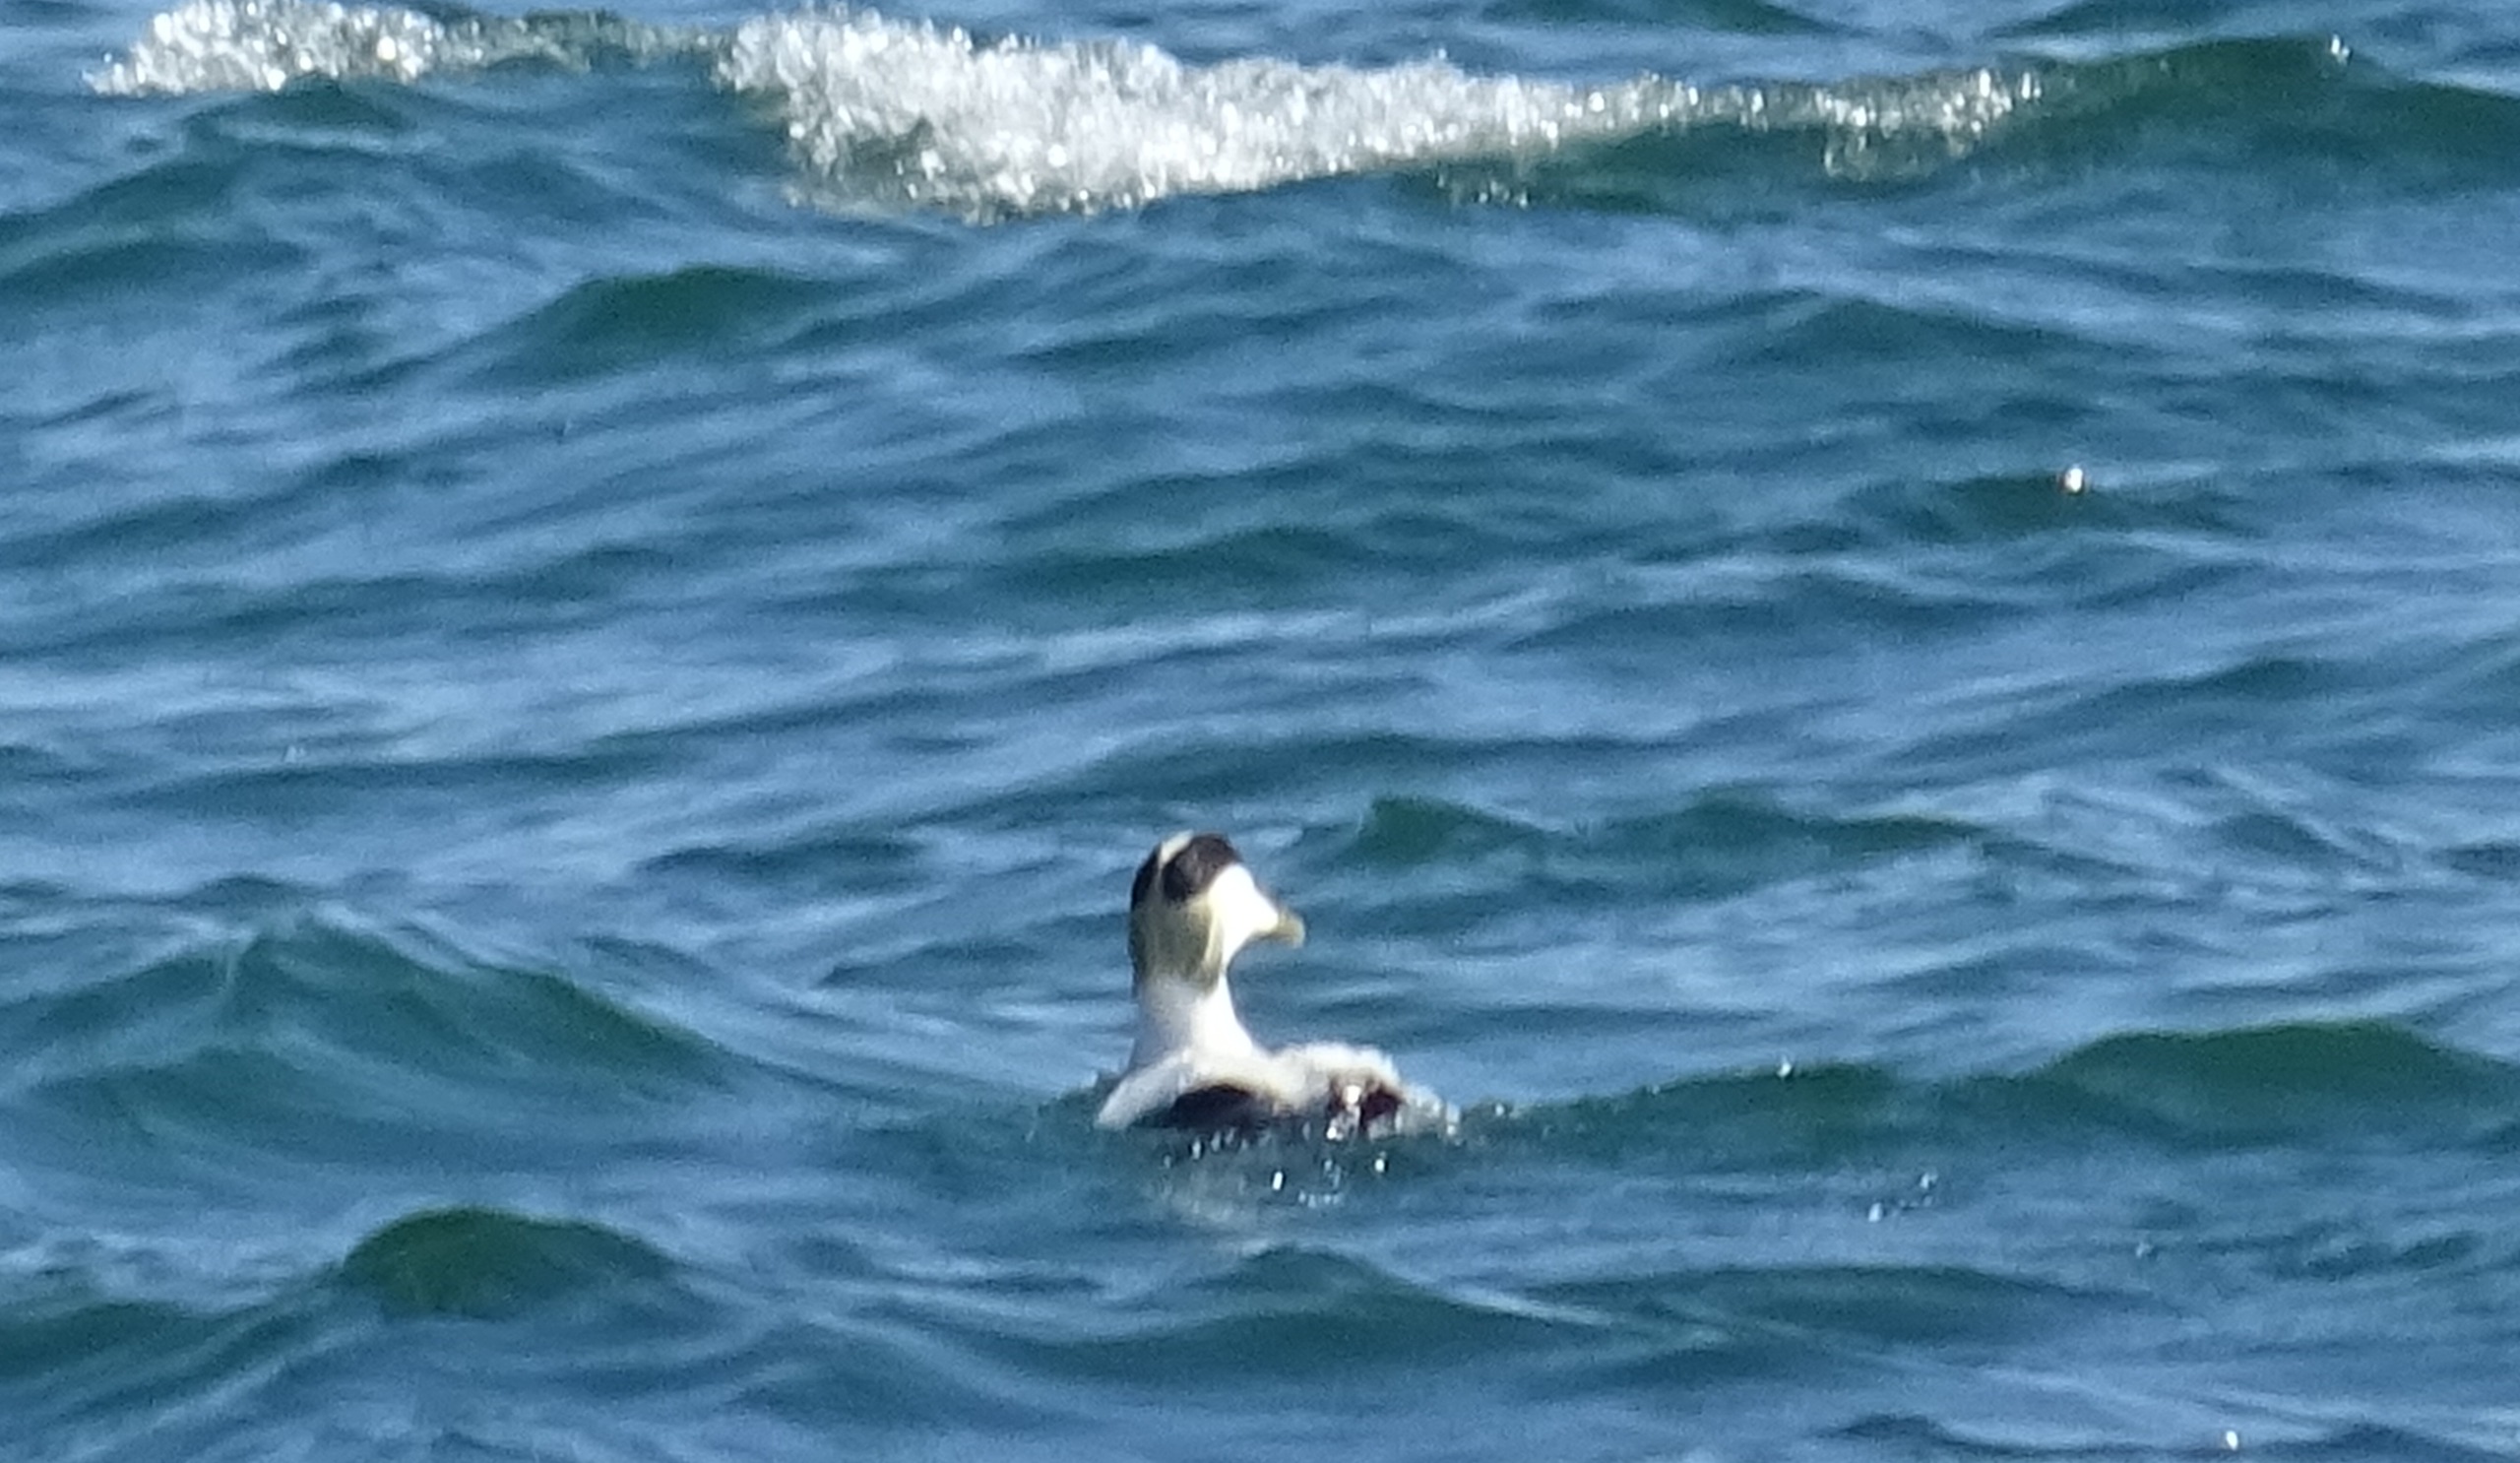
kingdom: Animalia
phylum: Chordata
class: Aves
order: Anseriformes
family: Anatidae
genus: Somateria
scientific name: Somateria mollissima
